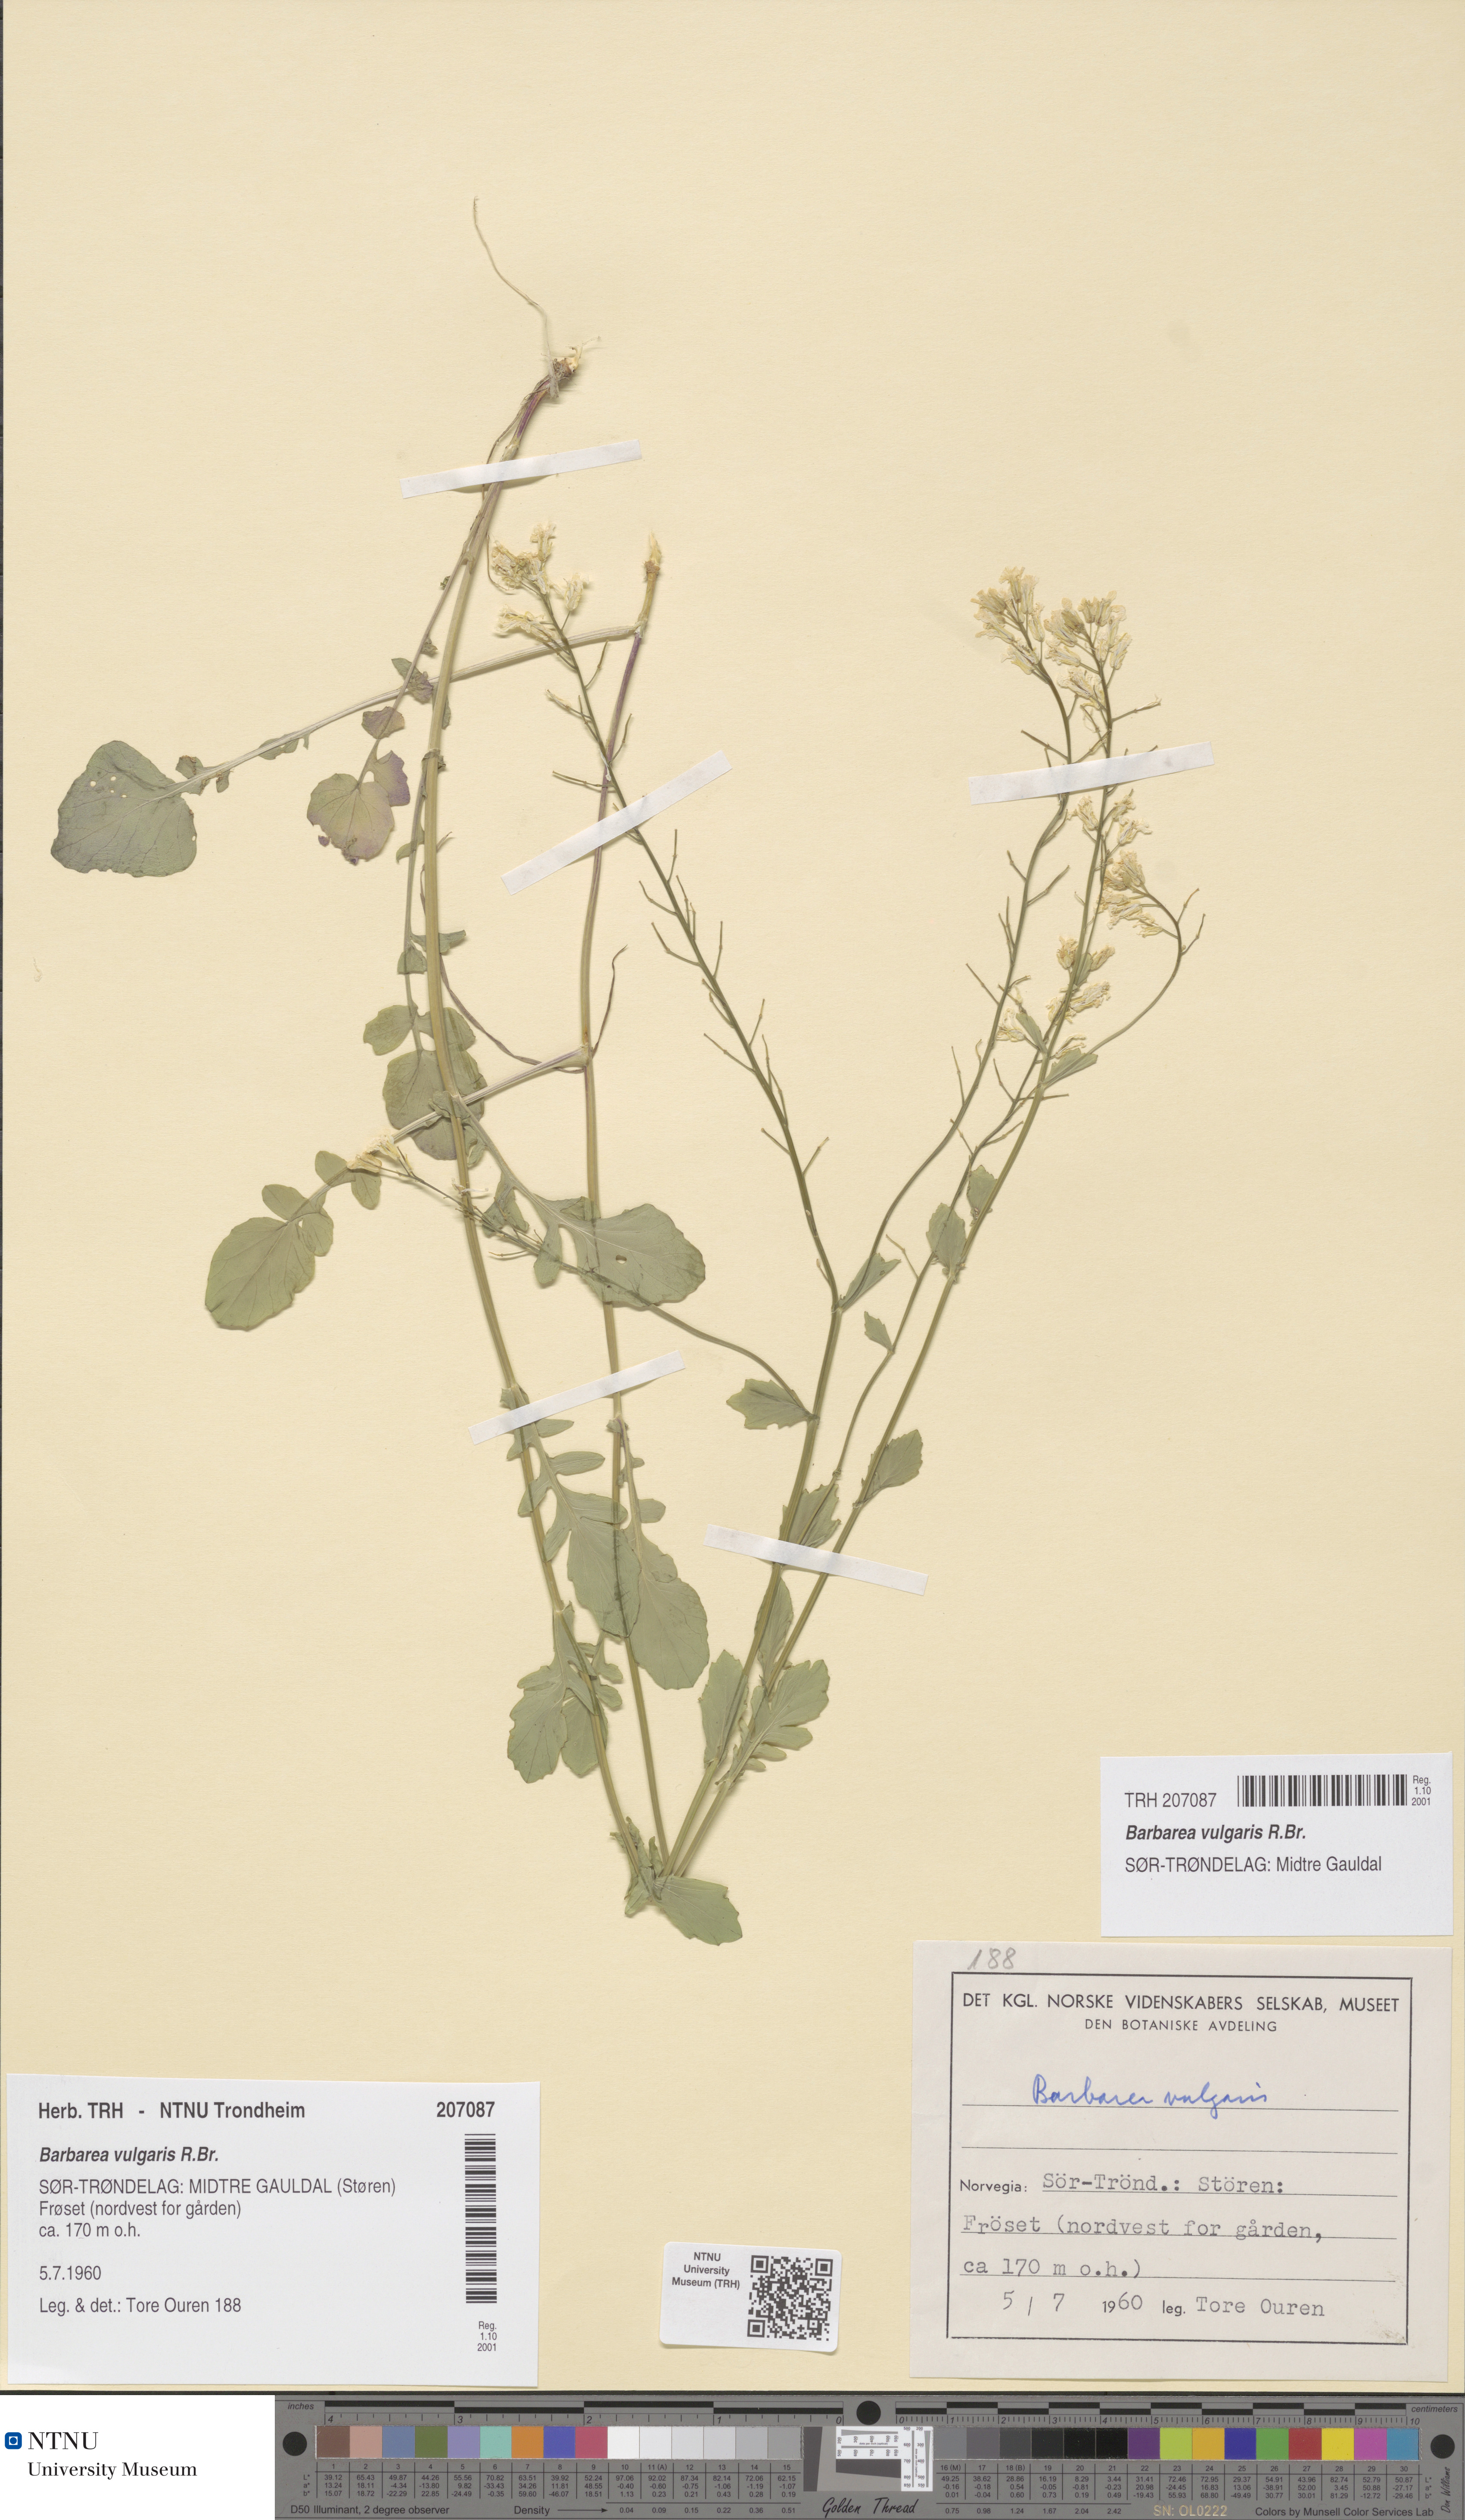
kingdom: Plantae
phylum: Tracheophyta
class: Magnoliopsida
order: Brassicales
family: Brassicaceae
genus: Barbarea
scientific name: Barbarea vulgaris
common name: Cressy-greens
